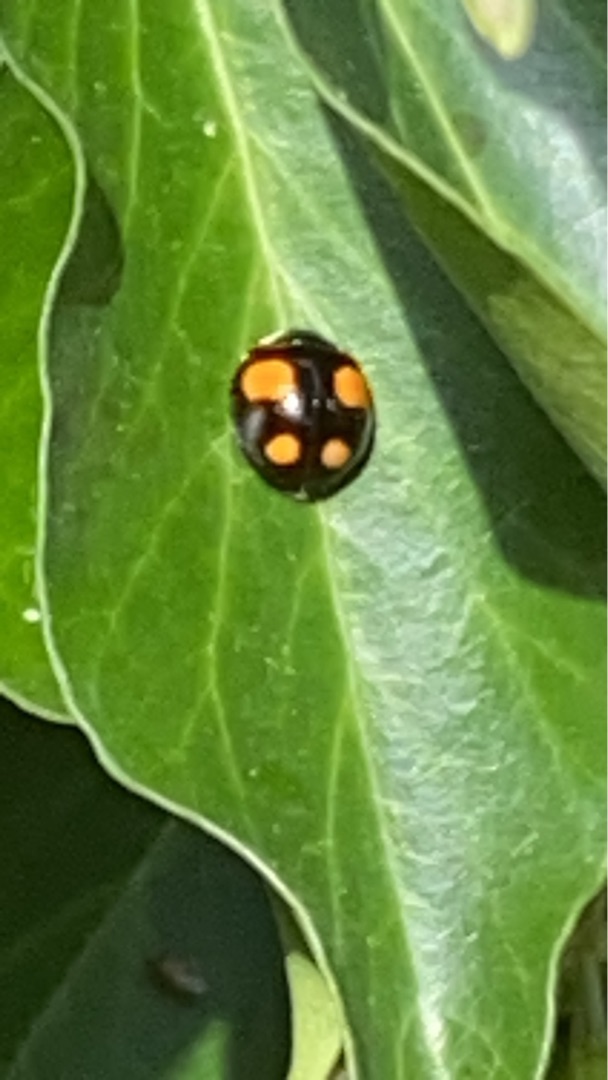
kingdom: Animalia
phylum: Arthropoda
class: Insecta
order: Coleoptera
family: Coccinellidae
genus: Harmonia
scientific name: Harmonia axyridis
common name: Harlekinmariehøne
